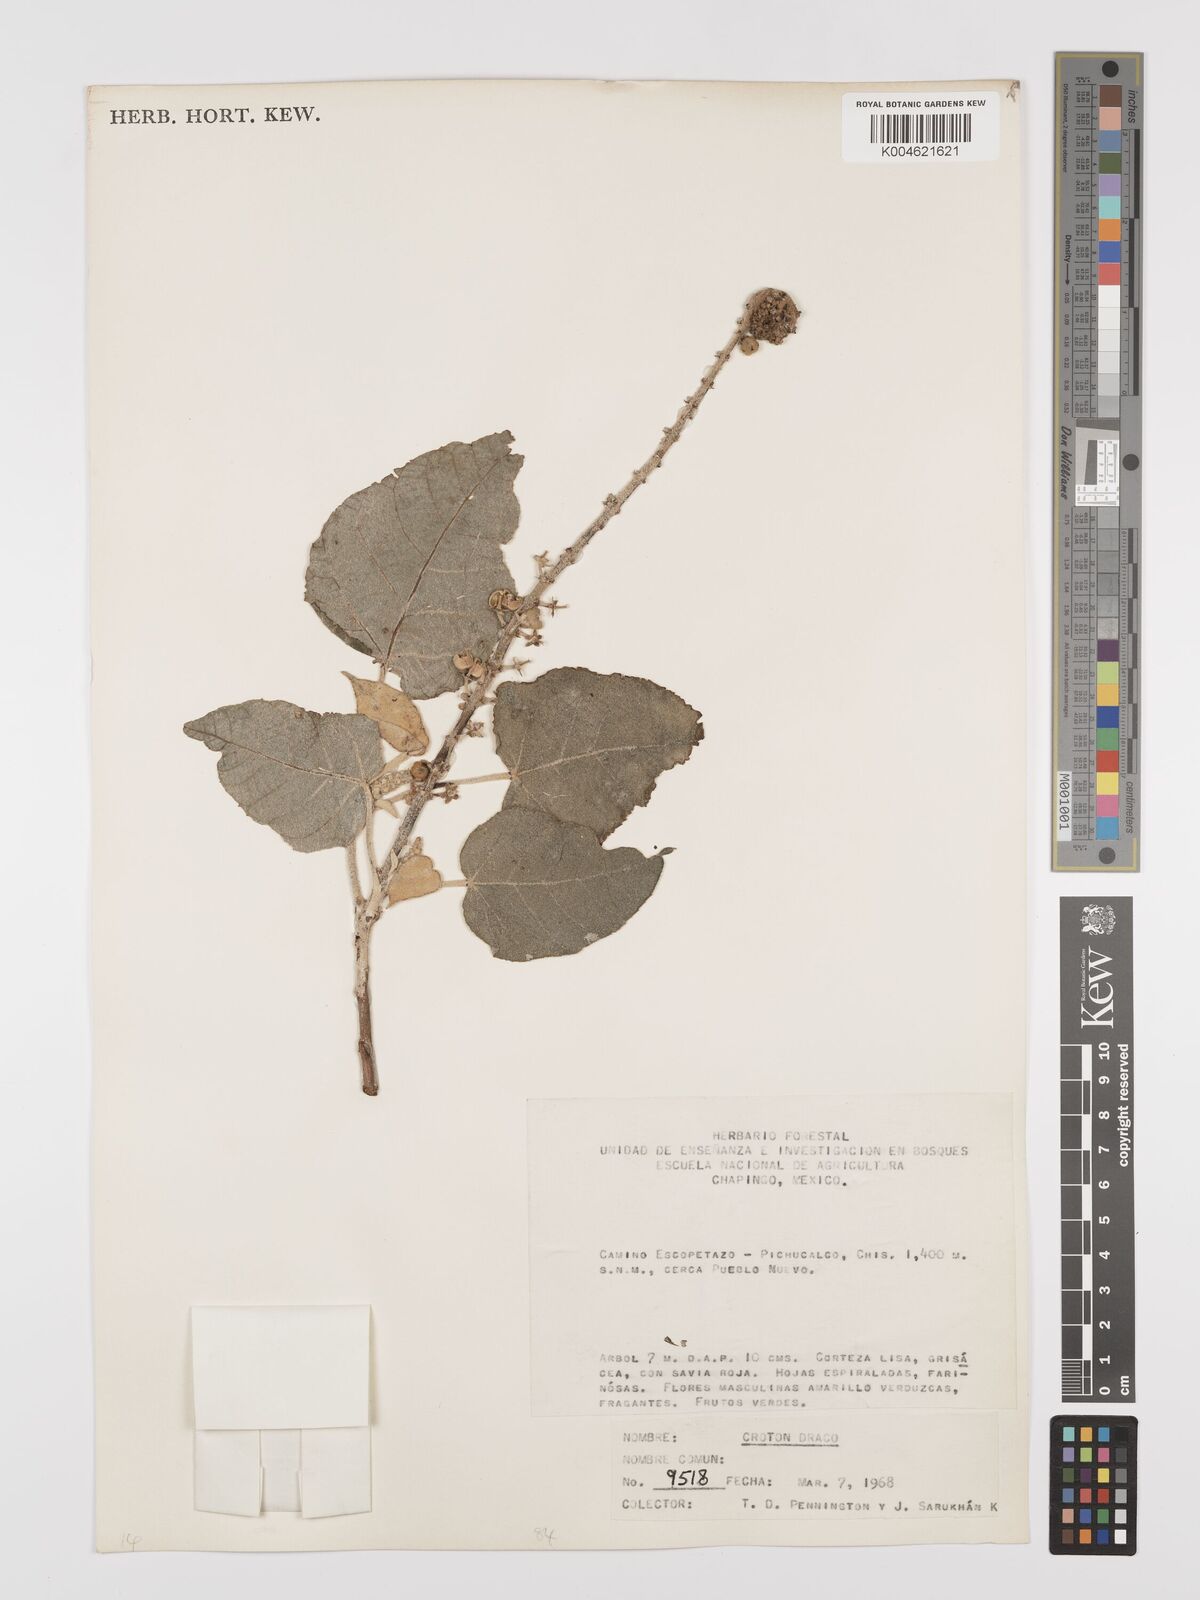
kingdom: Plantae
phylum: Tracheophyta
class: Magnoliopsida
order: Malpighiales
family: Euphorbiaceae
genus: Croton
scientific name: Croton draco
